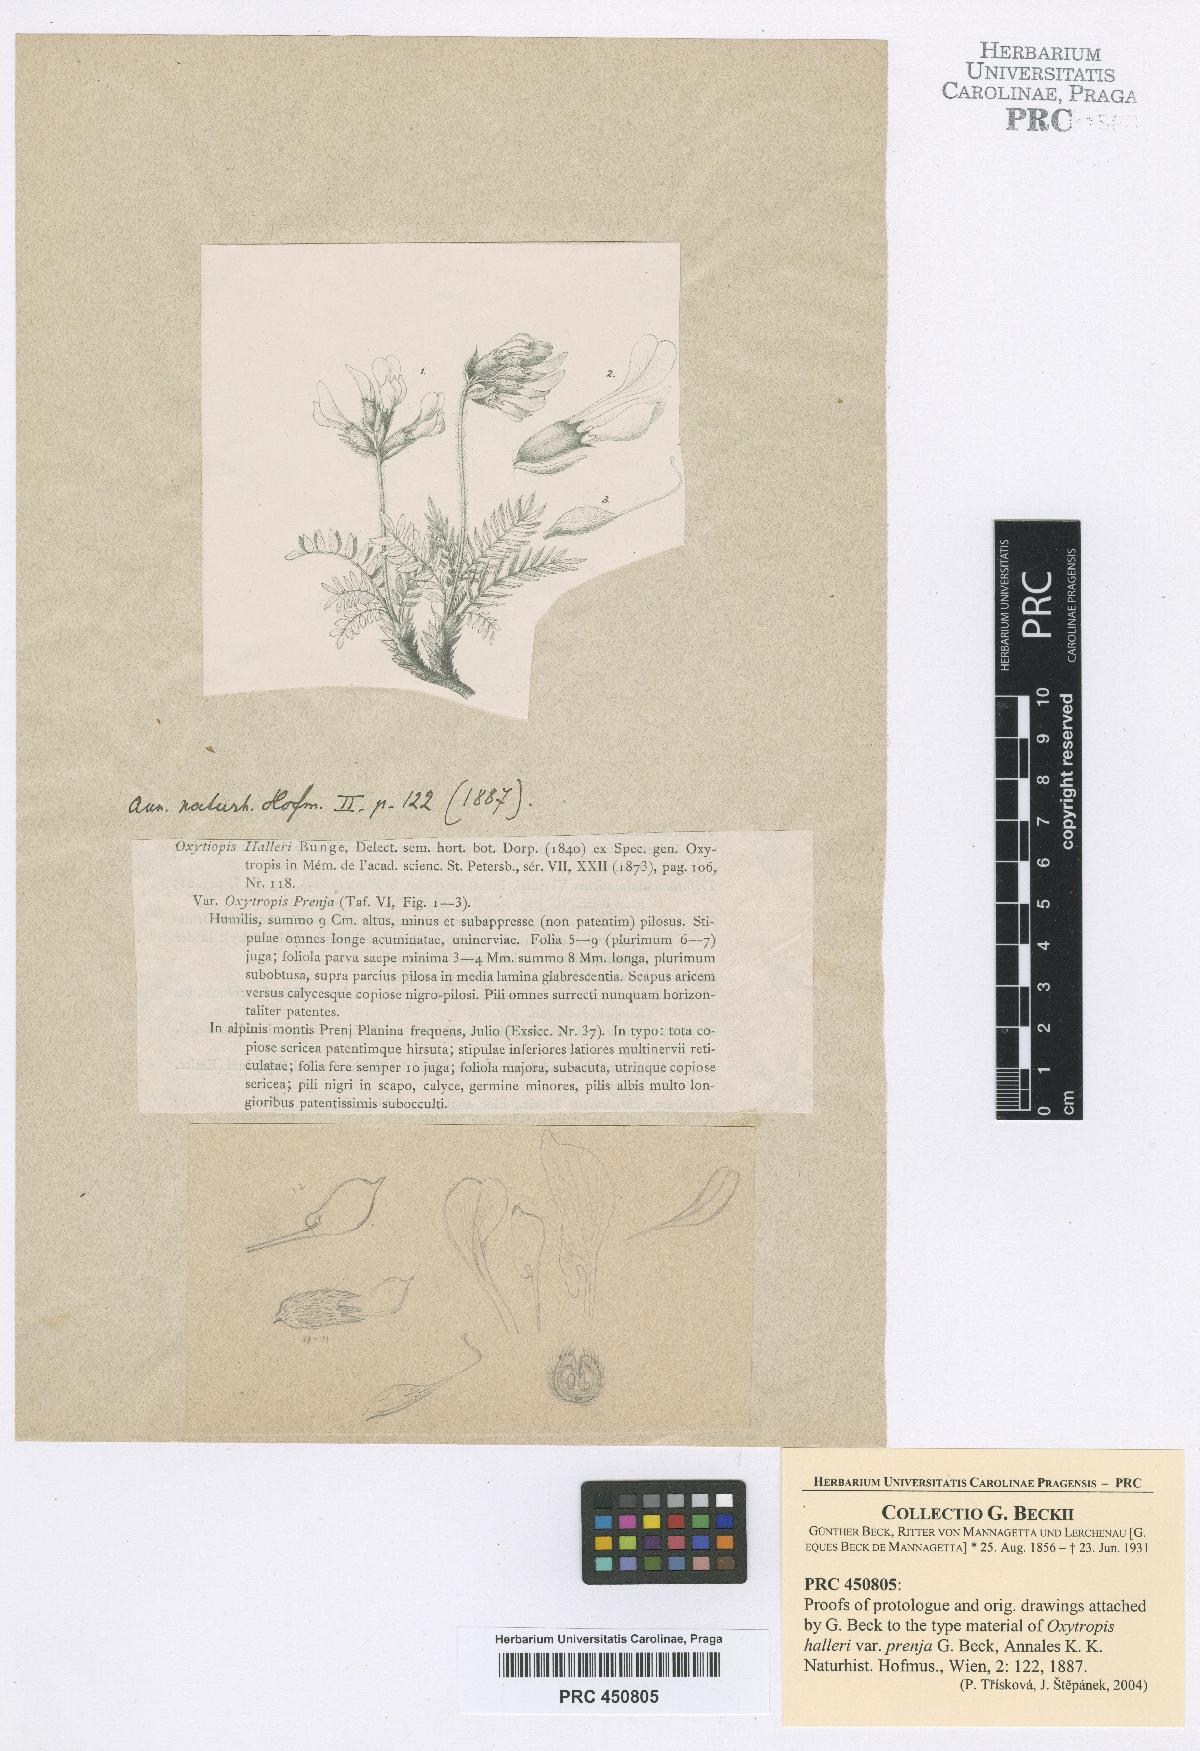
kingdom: Plantae
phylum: Tracheophyta
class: Magnoliopsida
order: Fabales
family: Fabaceae
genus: Oxytropis
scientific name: Oxytropis prenja
